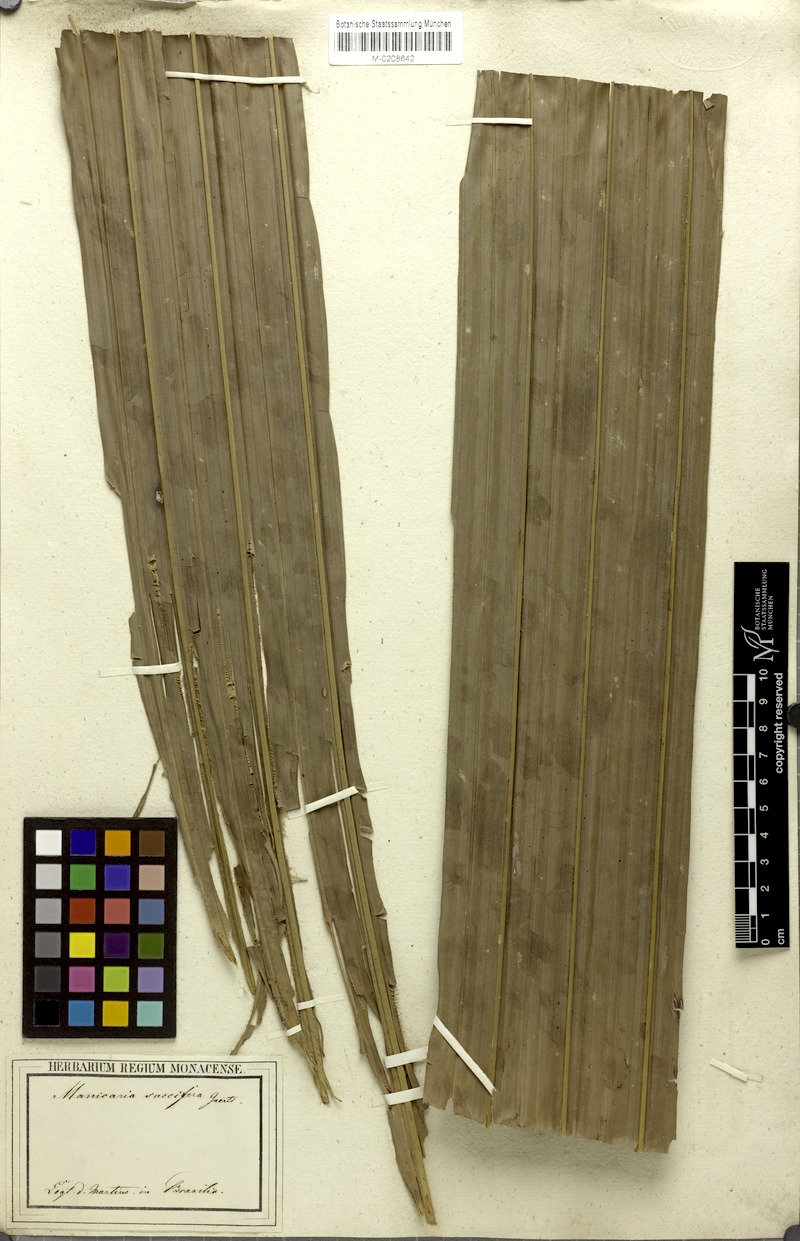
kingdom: Plantae
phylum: Tracheophyta
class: Liliopsida
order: Arecales
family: Arecaceae
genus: Manicaria
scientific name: Manicaria saccifera
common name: Sea coconut
